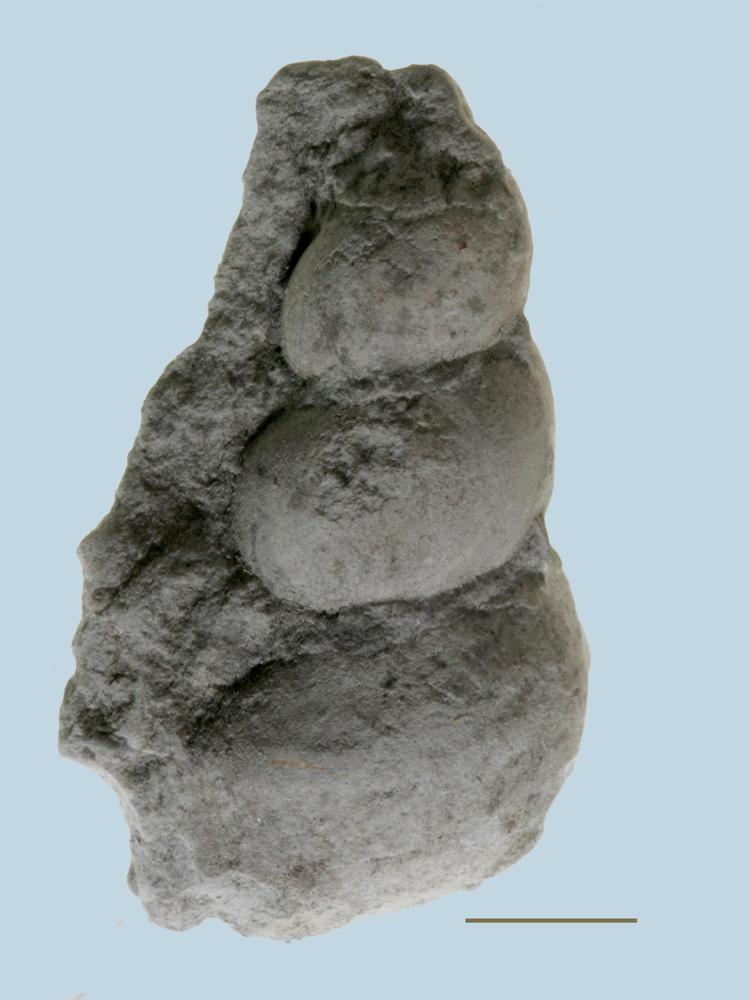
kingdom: Animalia
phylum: Mollusca
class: Gastropoda
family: Loxonematidae
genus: Loxonema
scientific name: Loxonema
